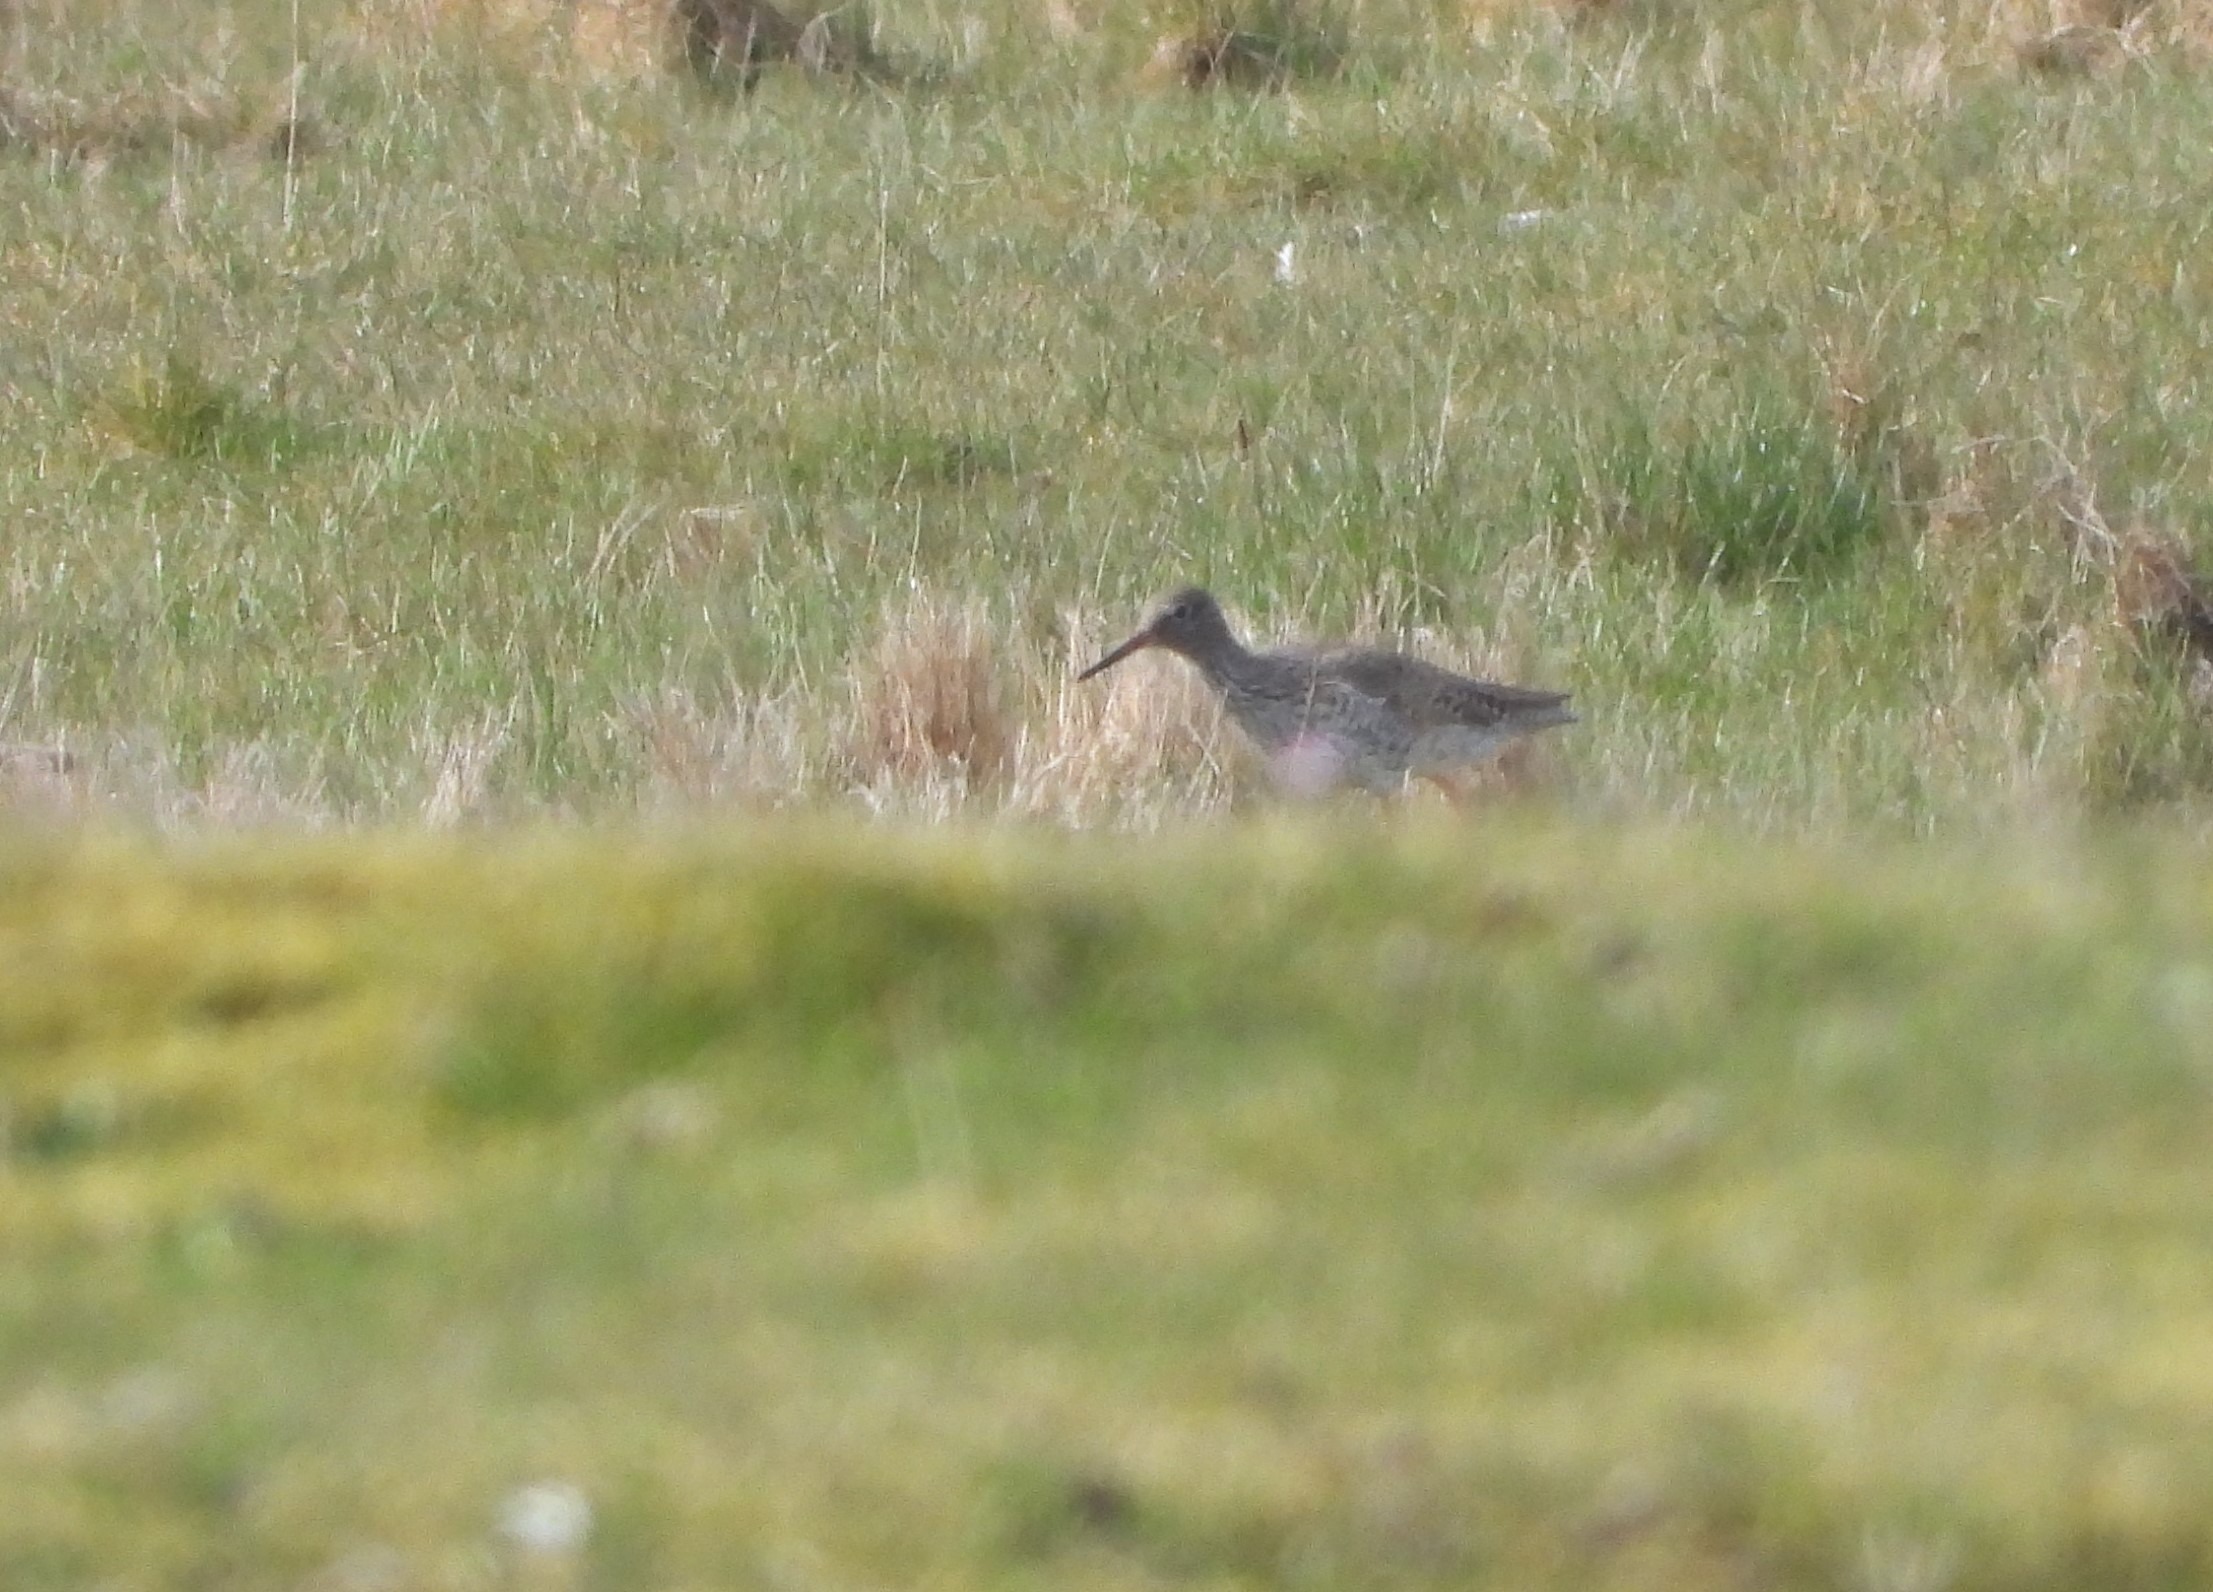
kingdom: Animalia
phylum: Chordata
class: Aves
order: Charadriiformes
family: Scolopacidae
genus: Tringa
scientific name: Tringa totanus
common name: Rødben
